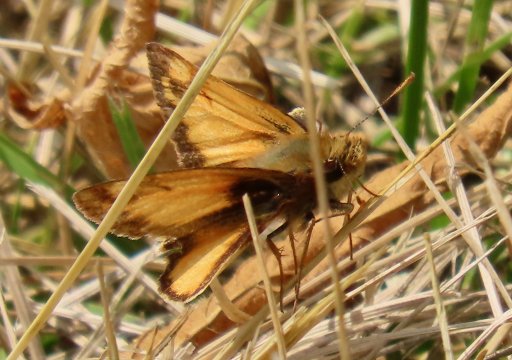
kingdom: Animalia
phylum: Arthropoda
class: Insecta
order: Lepidoptera
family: Hesperiidae
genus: Lon
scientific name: Lon zabulon
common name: Zabulon Skipper
